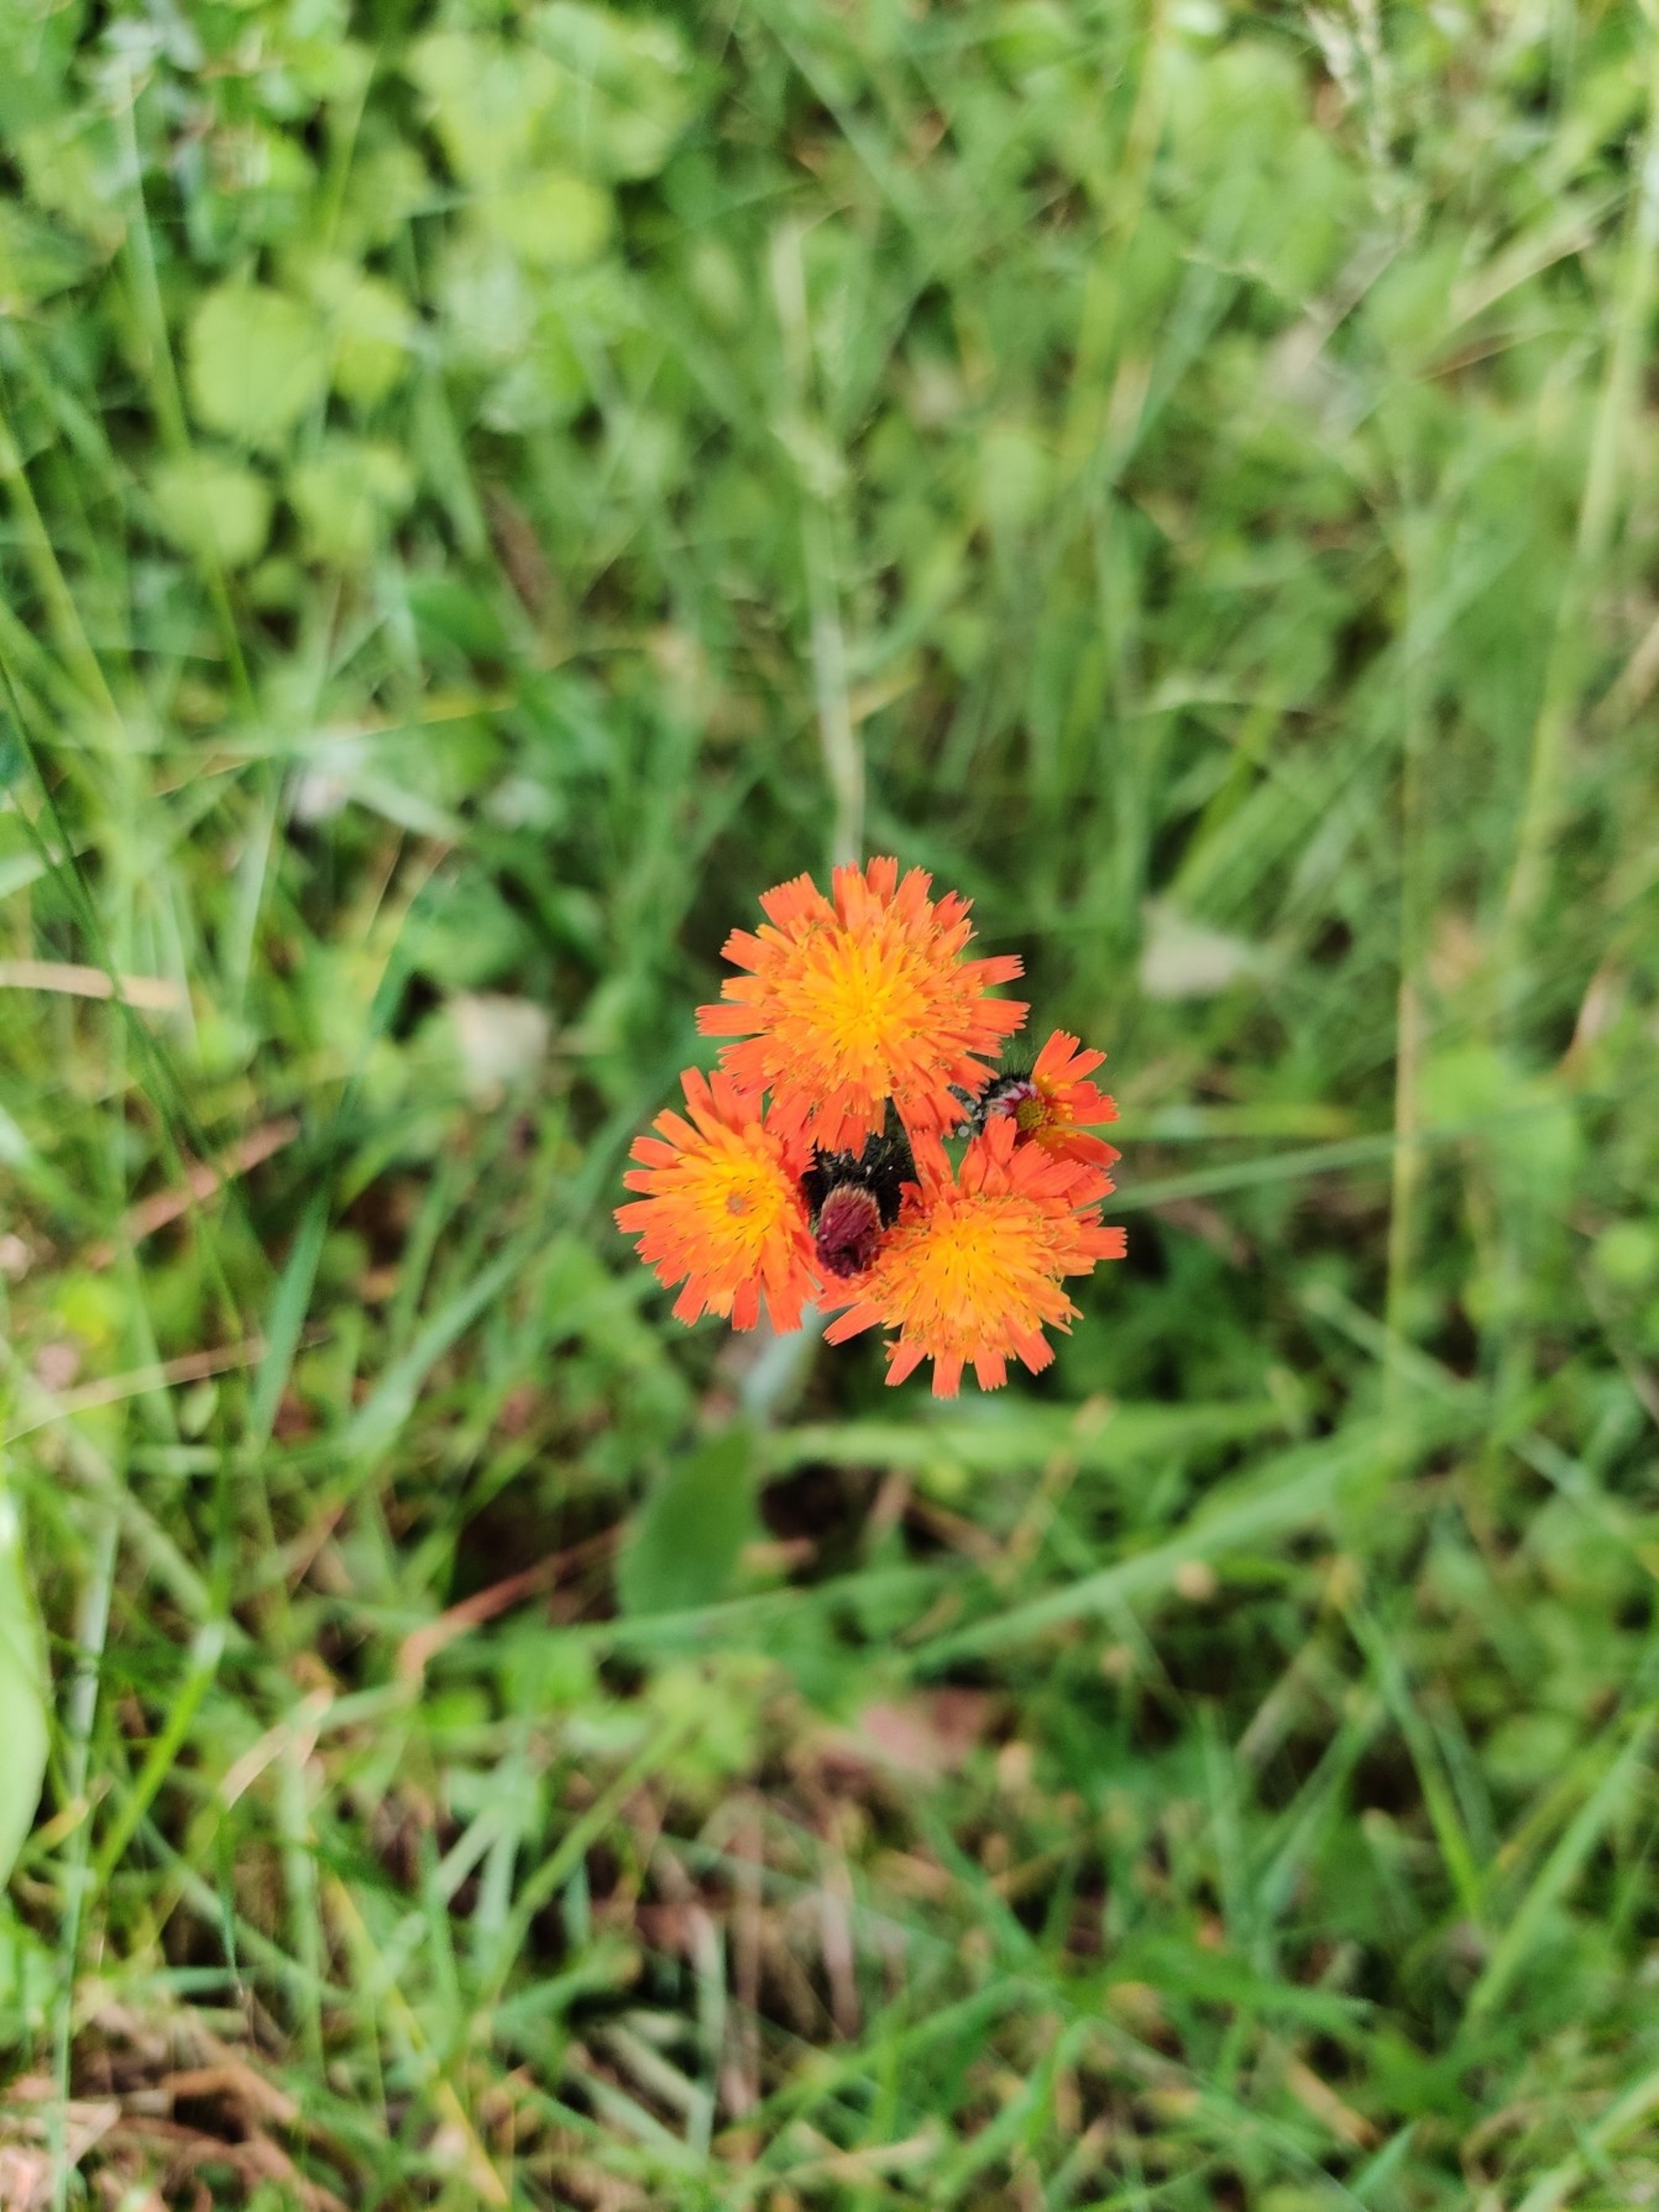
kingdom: Plantae
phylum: Tracheophyta
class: Magnoliopsida
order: Asterales
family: Asteraceae
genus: Pilosella
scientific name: Pilosella aurantiaca
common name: Pomerans-høgeurt
